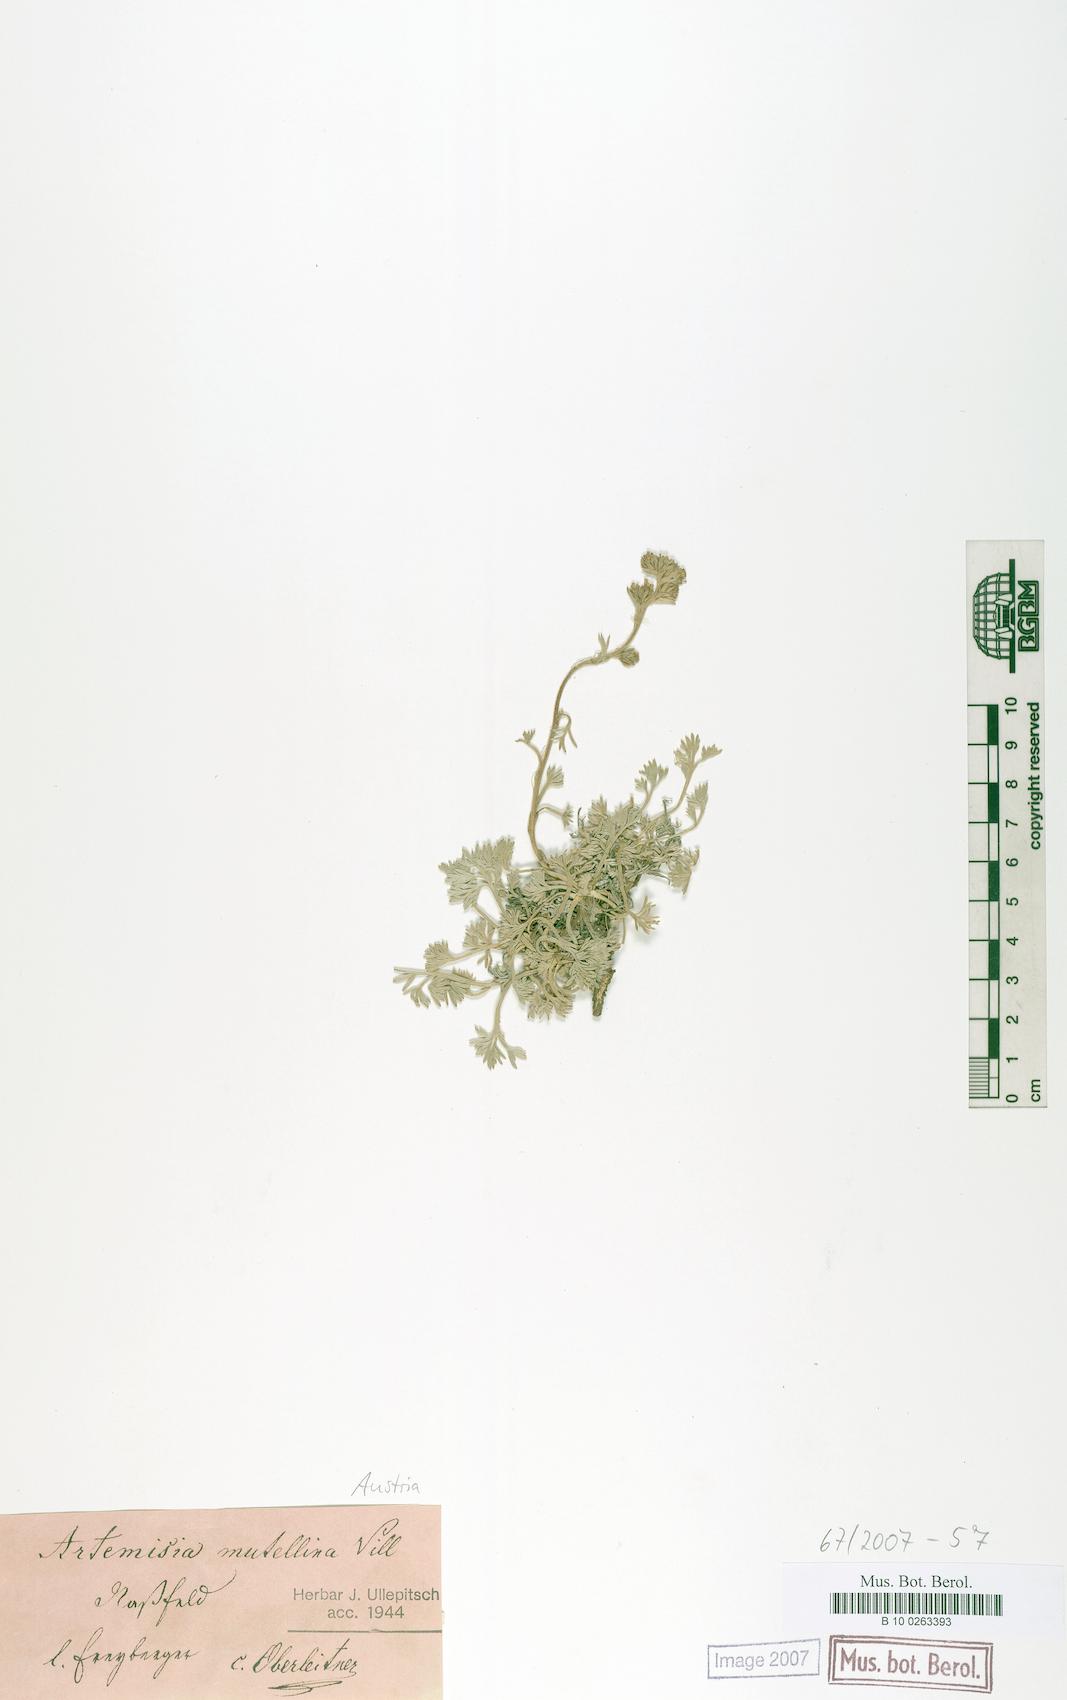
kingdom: Plantae
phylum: Tracheophyta
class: Magnoliopsida
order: Asterales
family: Asteraceae
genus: Artemisia
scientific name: Artemisia mutellina
